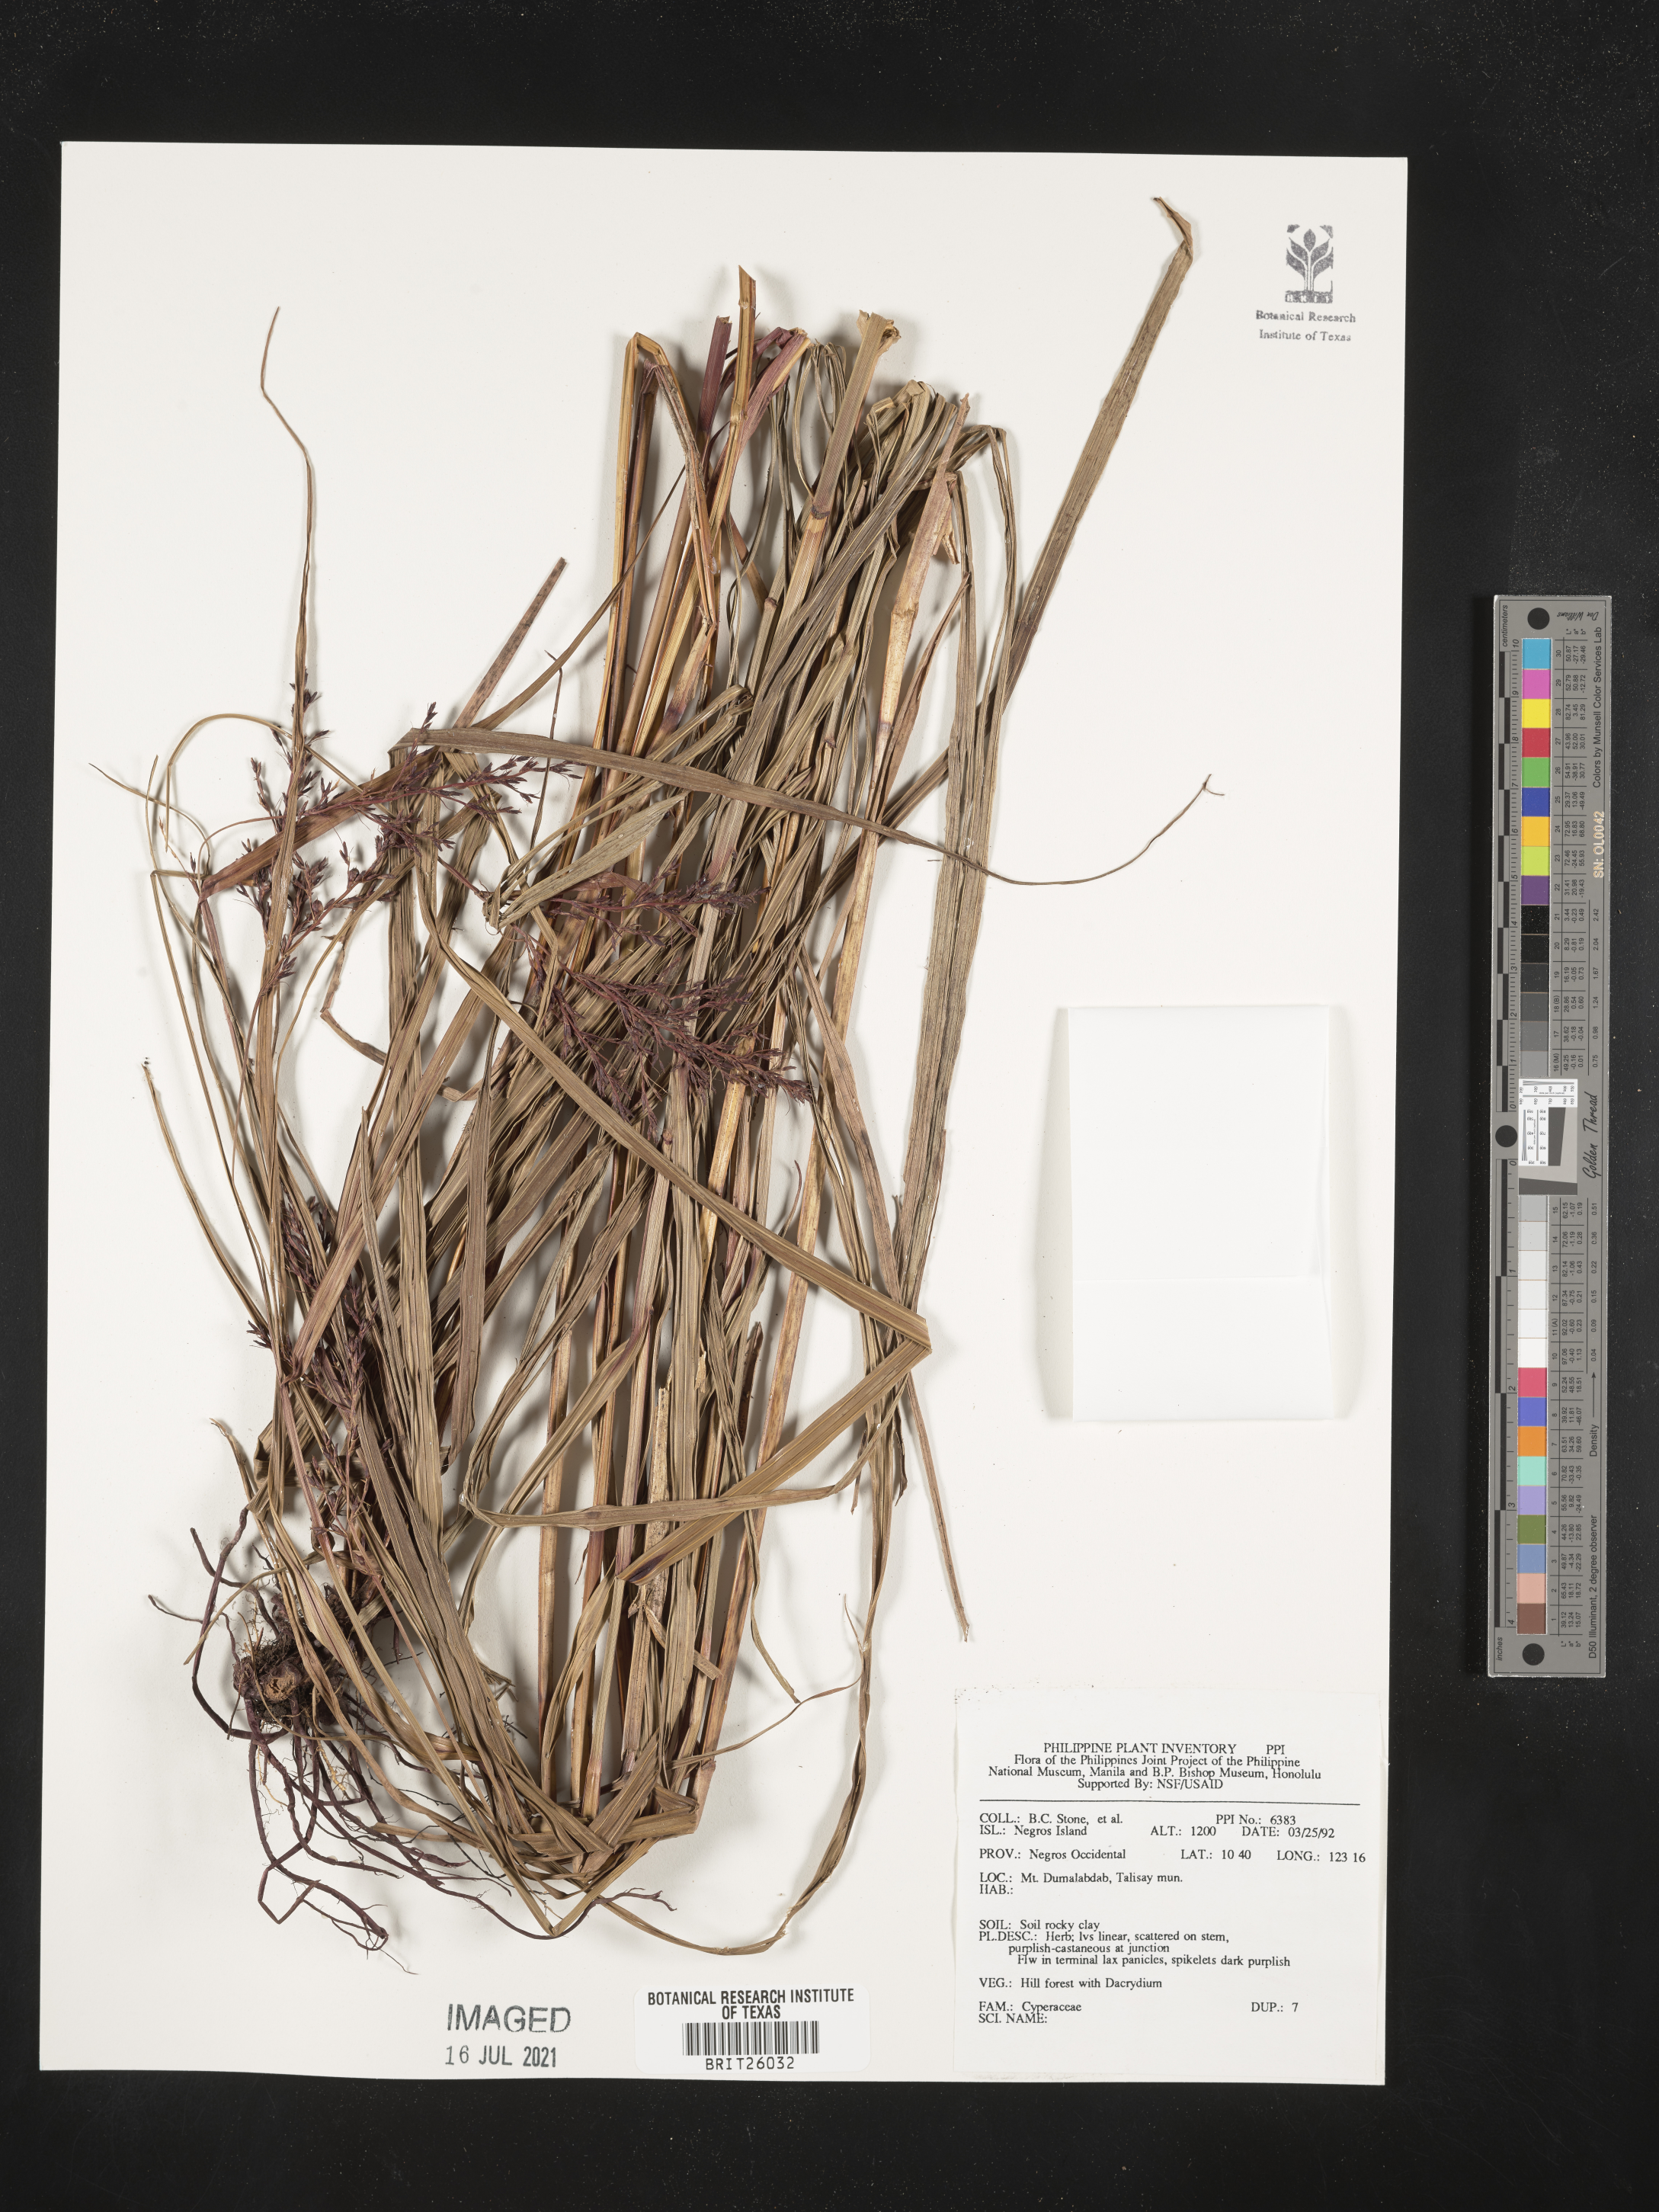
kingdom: Plantae
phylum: Tracheophyta
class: Liliopsida
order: Poales
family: Cyperaceae
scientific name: Cyperaceae
